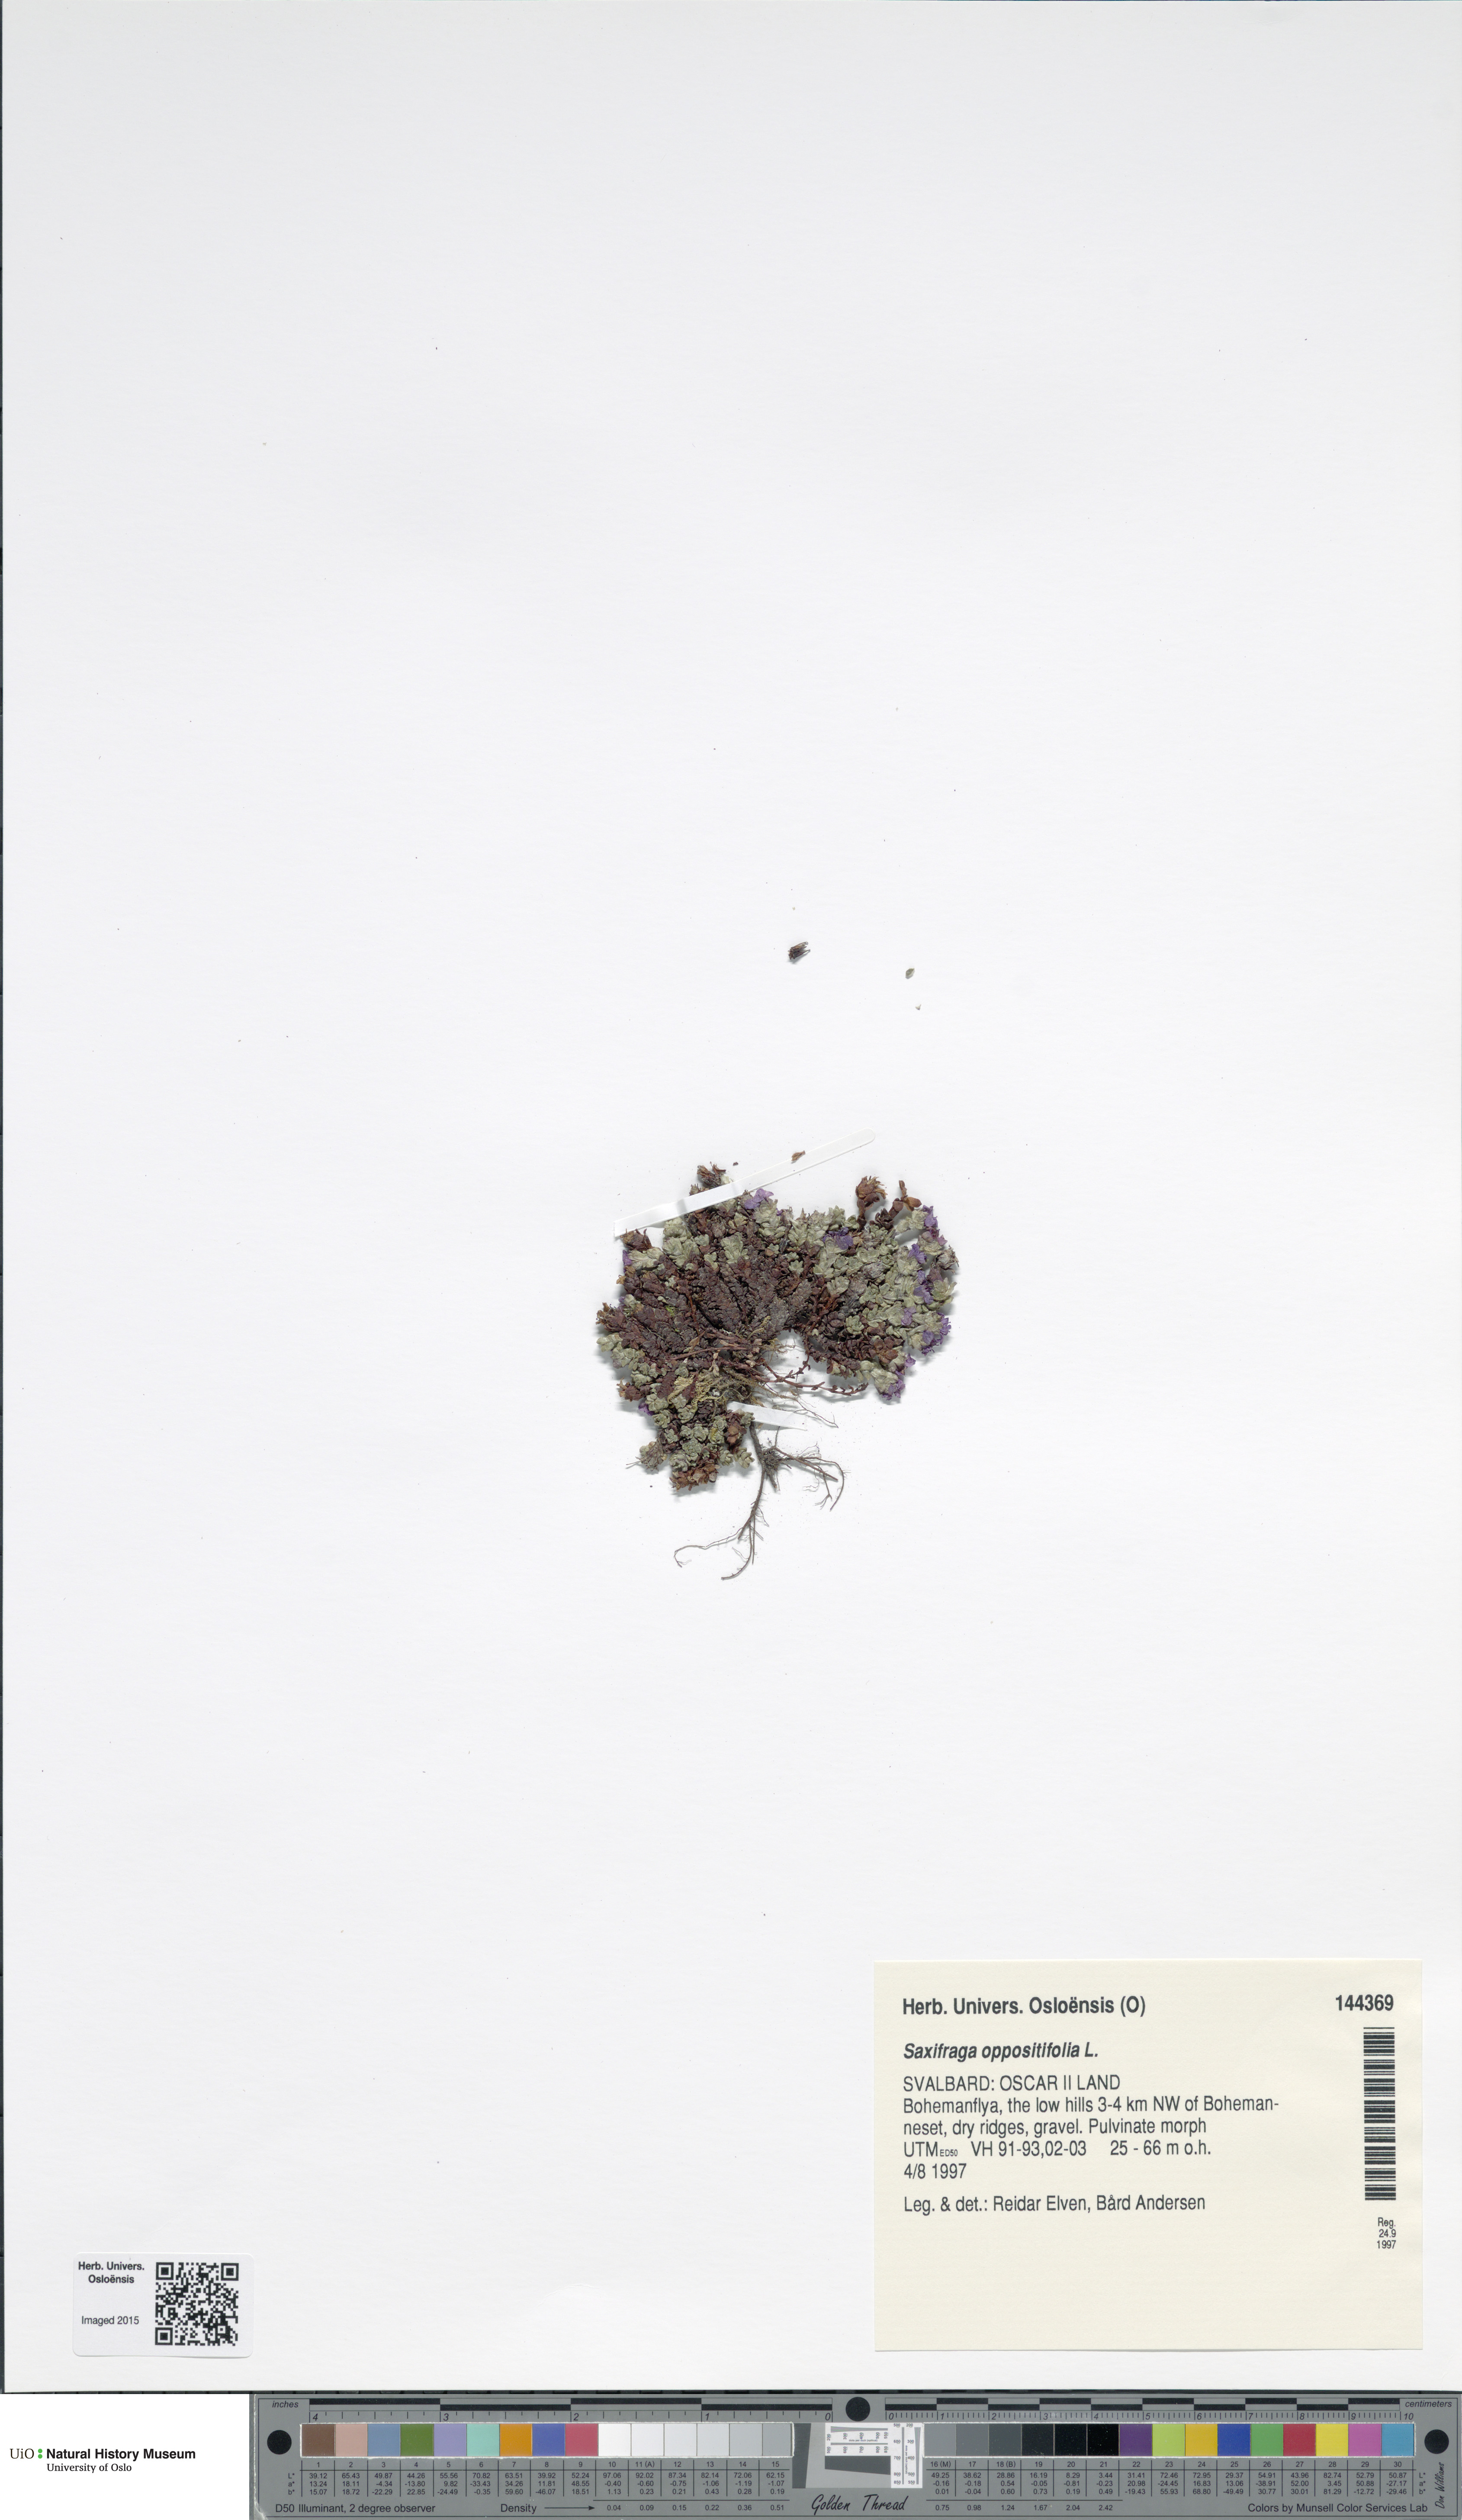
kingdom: Plantae
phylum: Tracheophyta
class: Magnoliopsida
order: Saxifragales
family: Saxifragaceae
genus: Saxifraga
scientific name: Saxifraga oppositifolia
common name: Purple saxifrage
